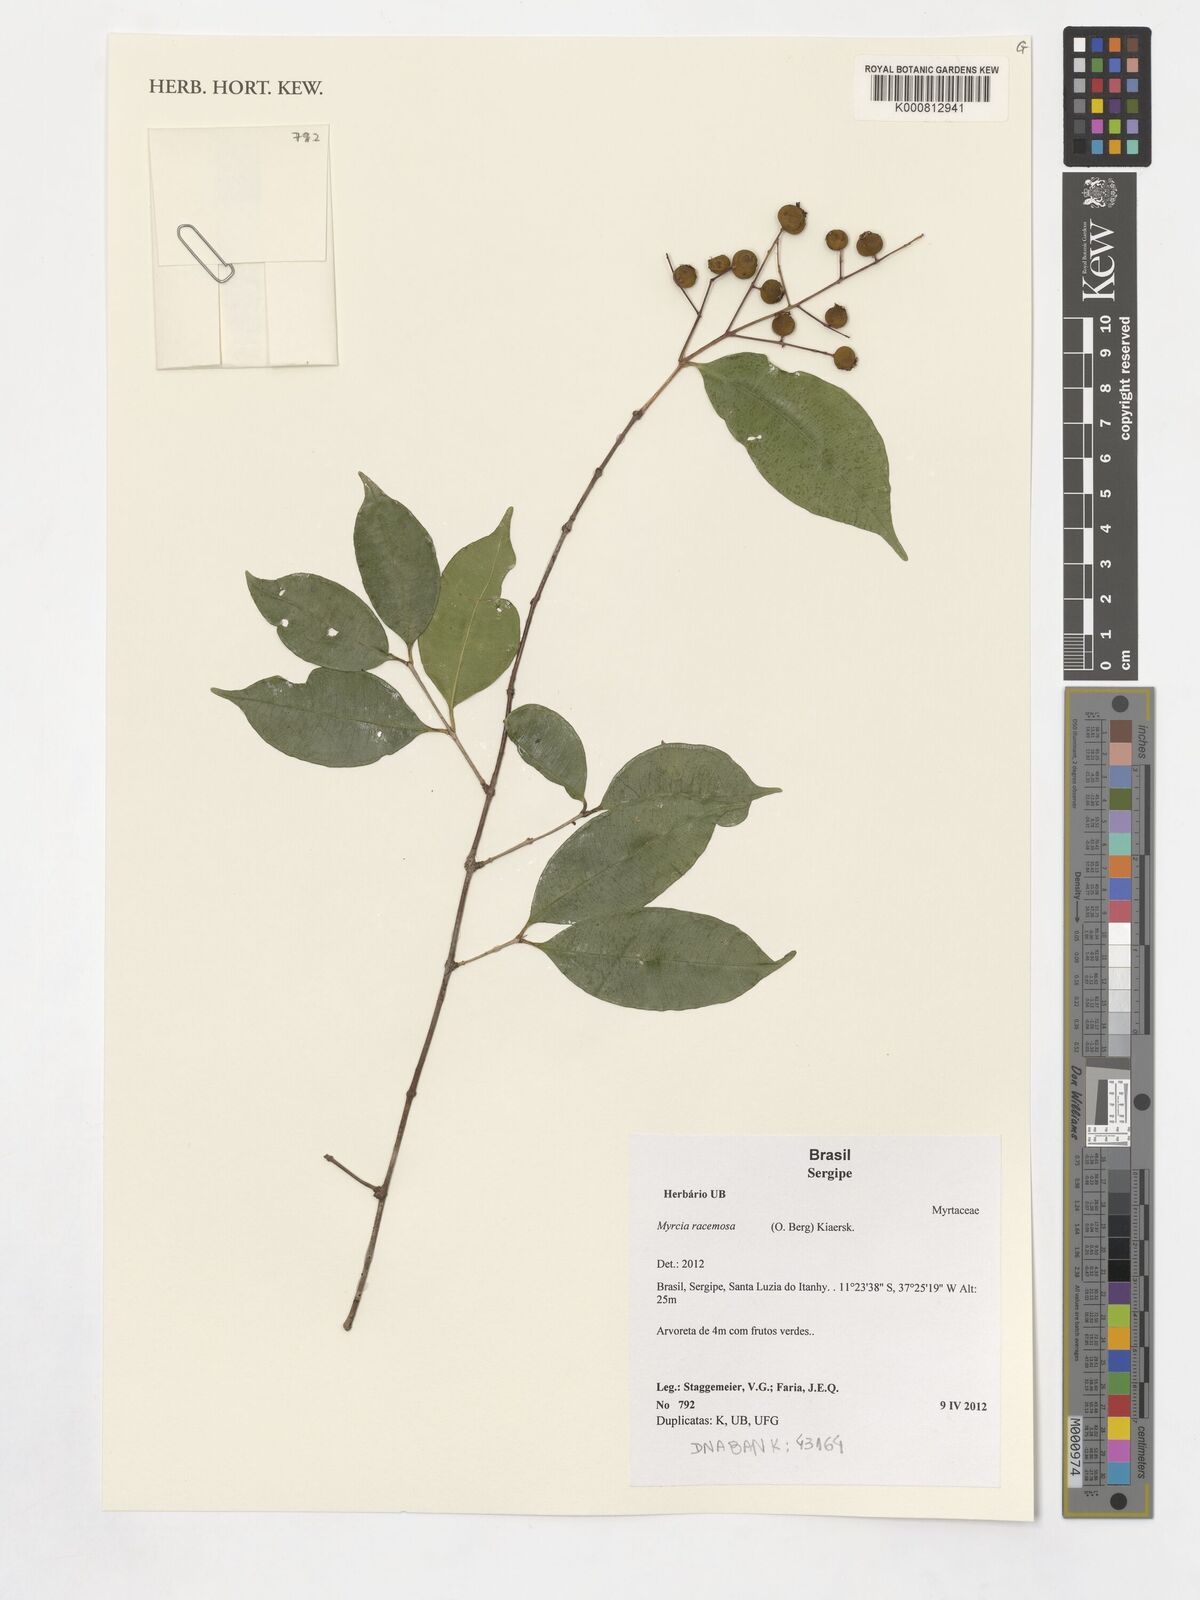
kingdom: Plantae
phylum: Tracheophyta
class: Magnoliopsida
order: Myrtales
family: Myrtaceae
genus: Myrcia
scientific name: Myrcia racemosa
